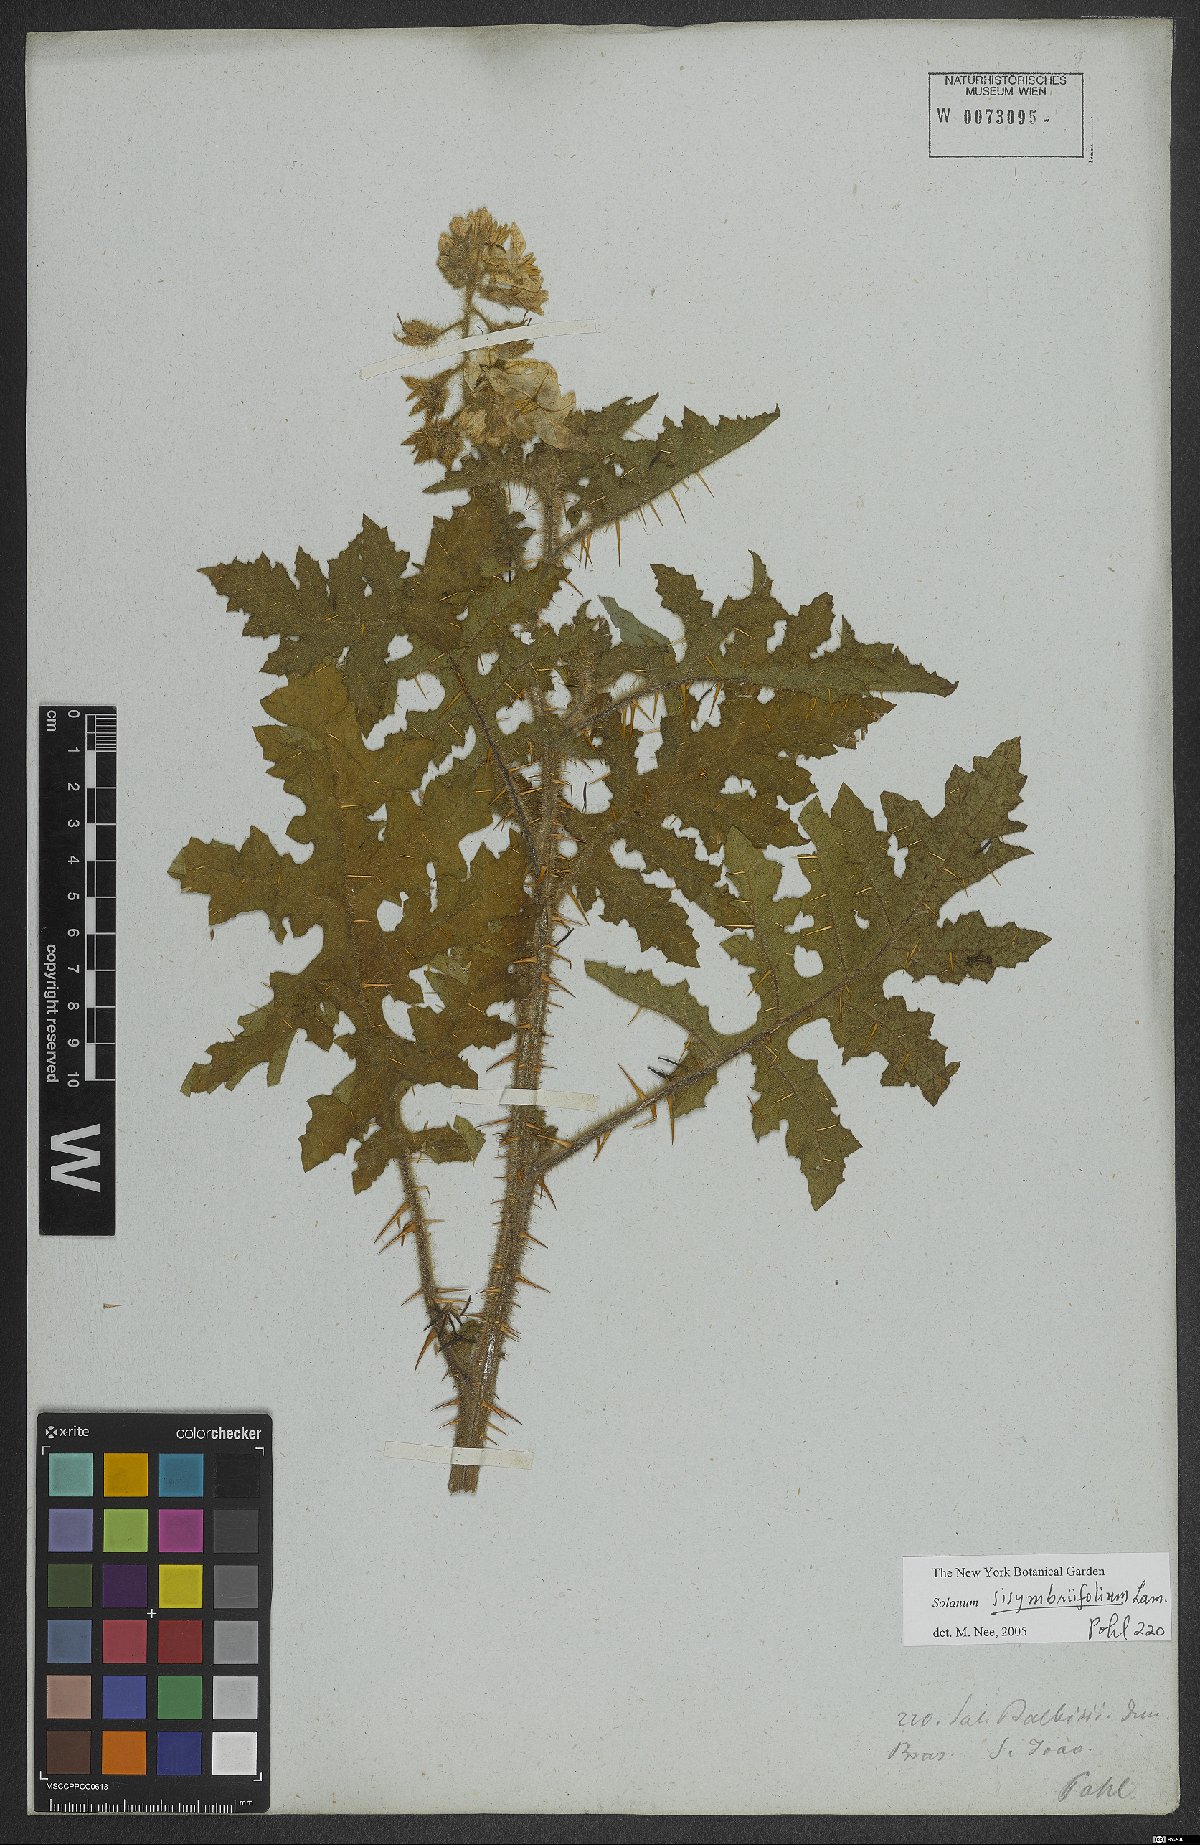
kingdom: Plantae
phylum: Tracheophyta
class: Magnoliopsida
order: Solanales
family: Solanaceae
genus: Solanum
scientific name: Solanum sisymbriifolium
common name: Red buffalo-bur
